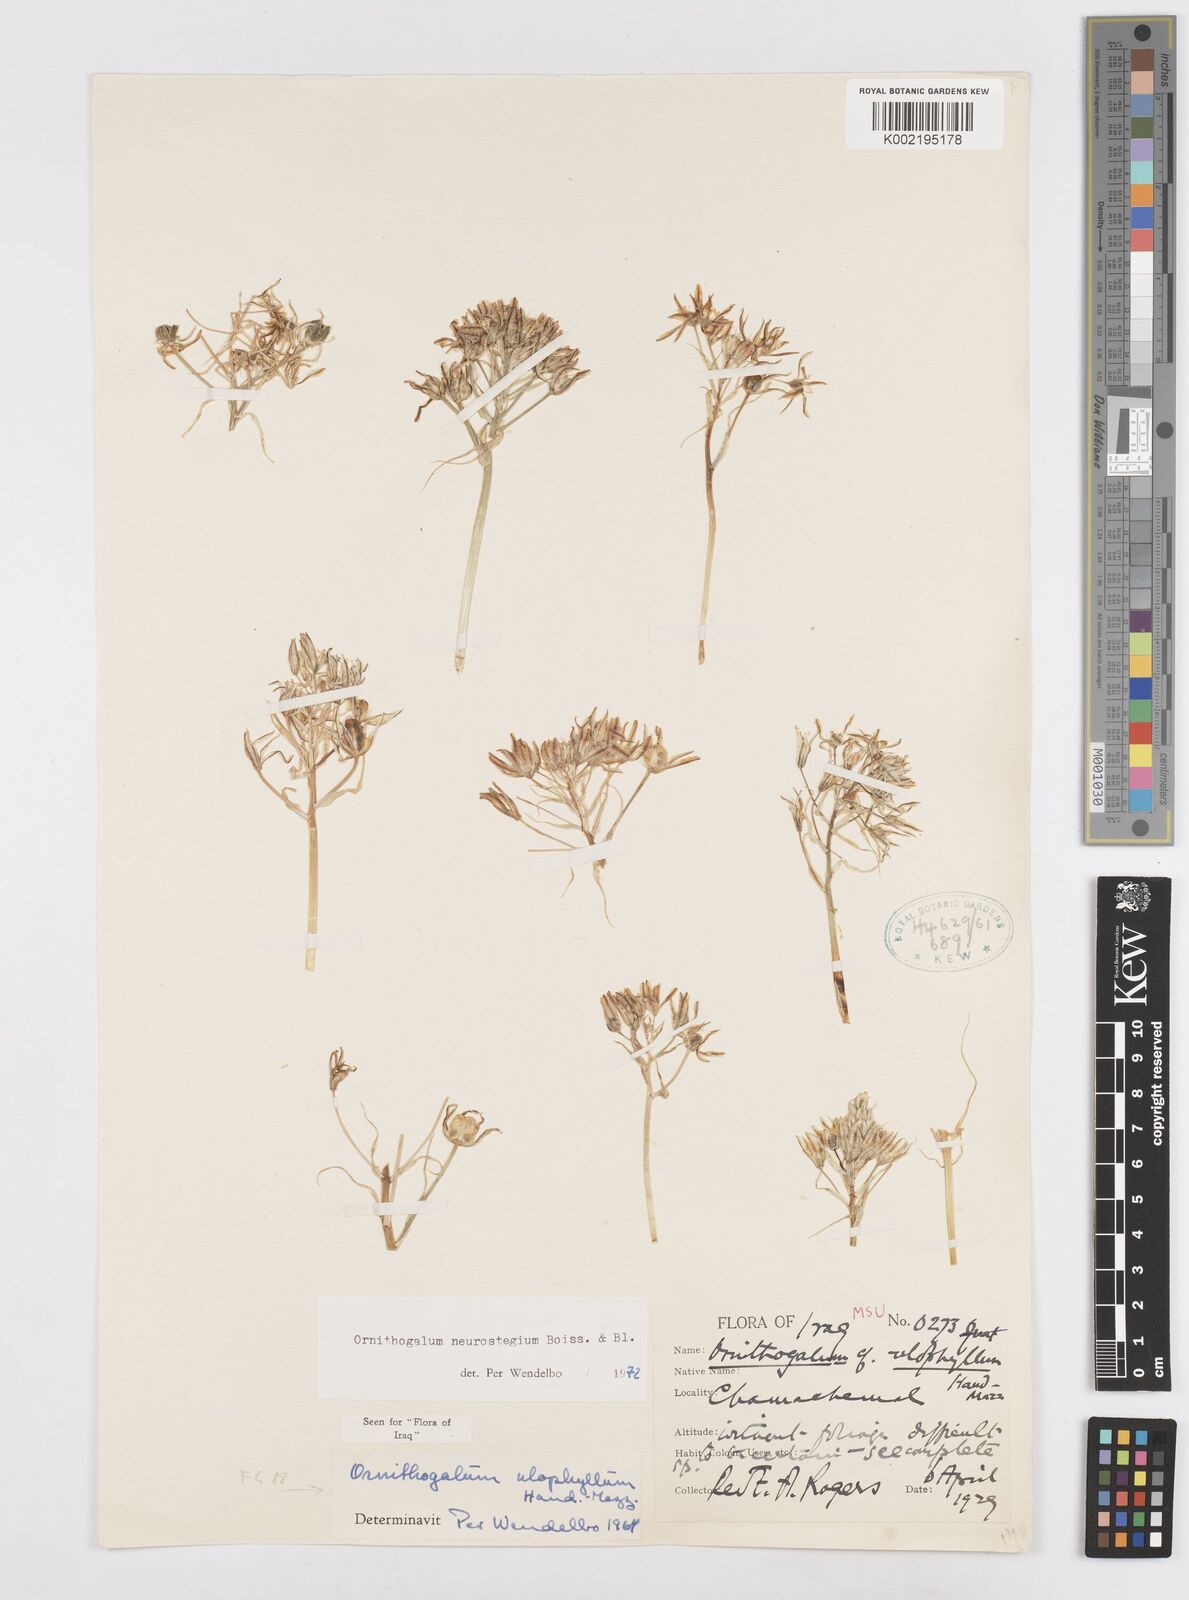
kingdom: Plantae
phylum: Tracheophyta
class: Liliopsida
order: Asparagales
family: Asparagaceae
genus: Ornithogalum
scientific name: Ornithogalum neurostegium
